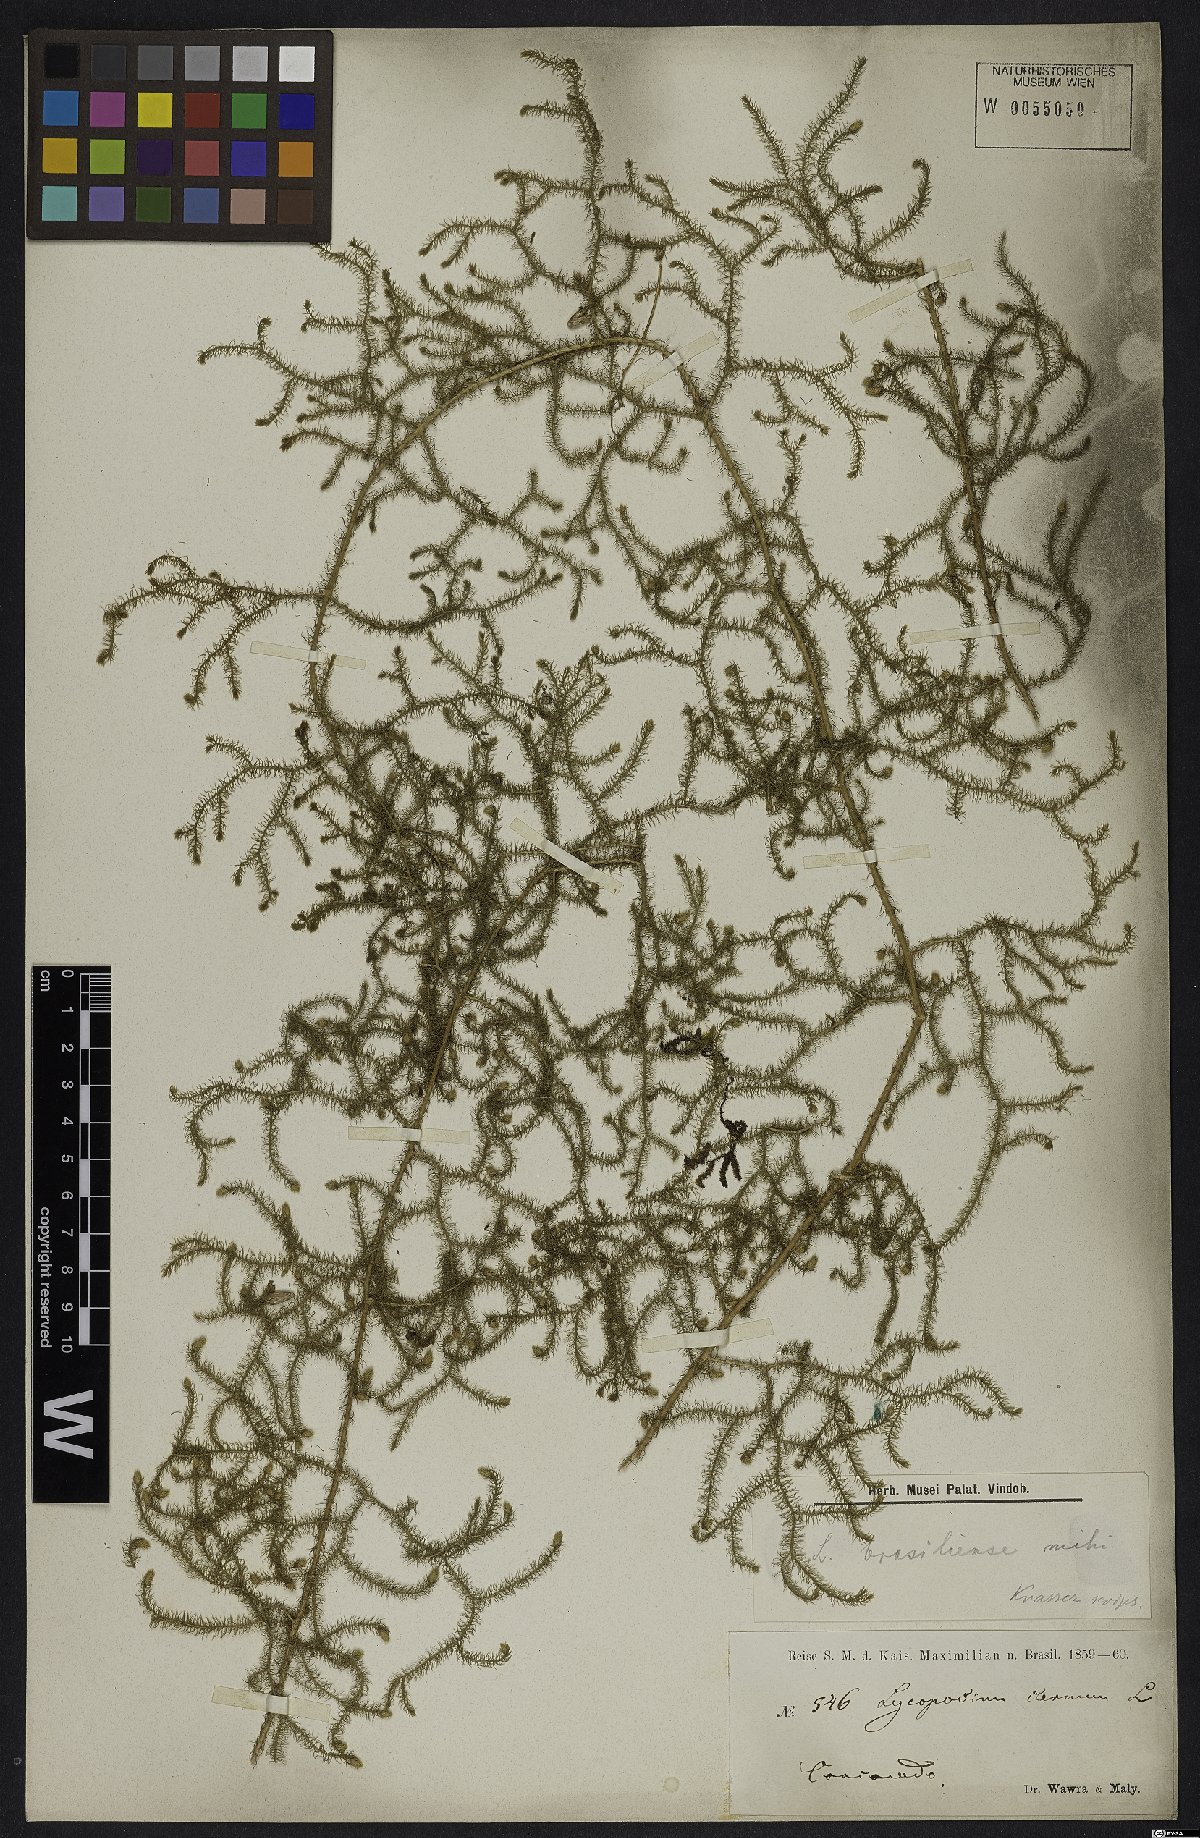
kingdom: Plantae
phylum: Tracheophyta
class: Lycopodiopsida
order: Selaginellales
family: Selaginellaceae
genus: Selaginella
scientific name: Selaginella muscosa
